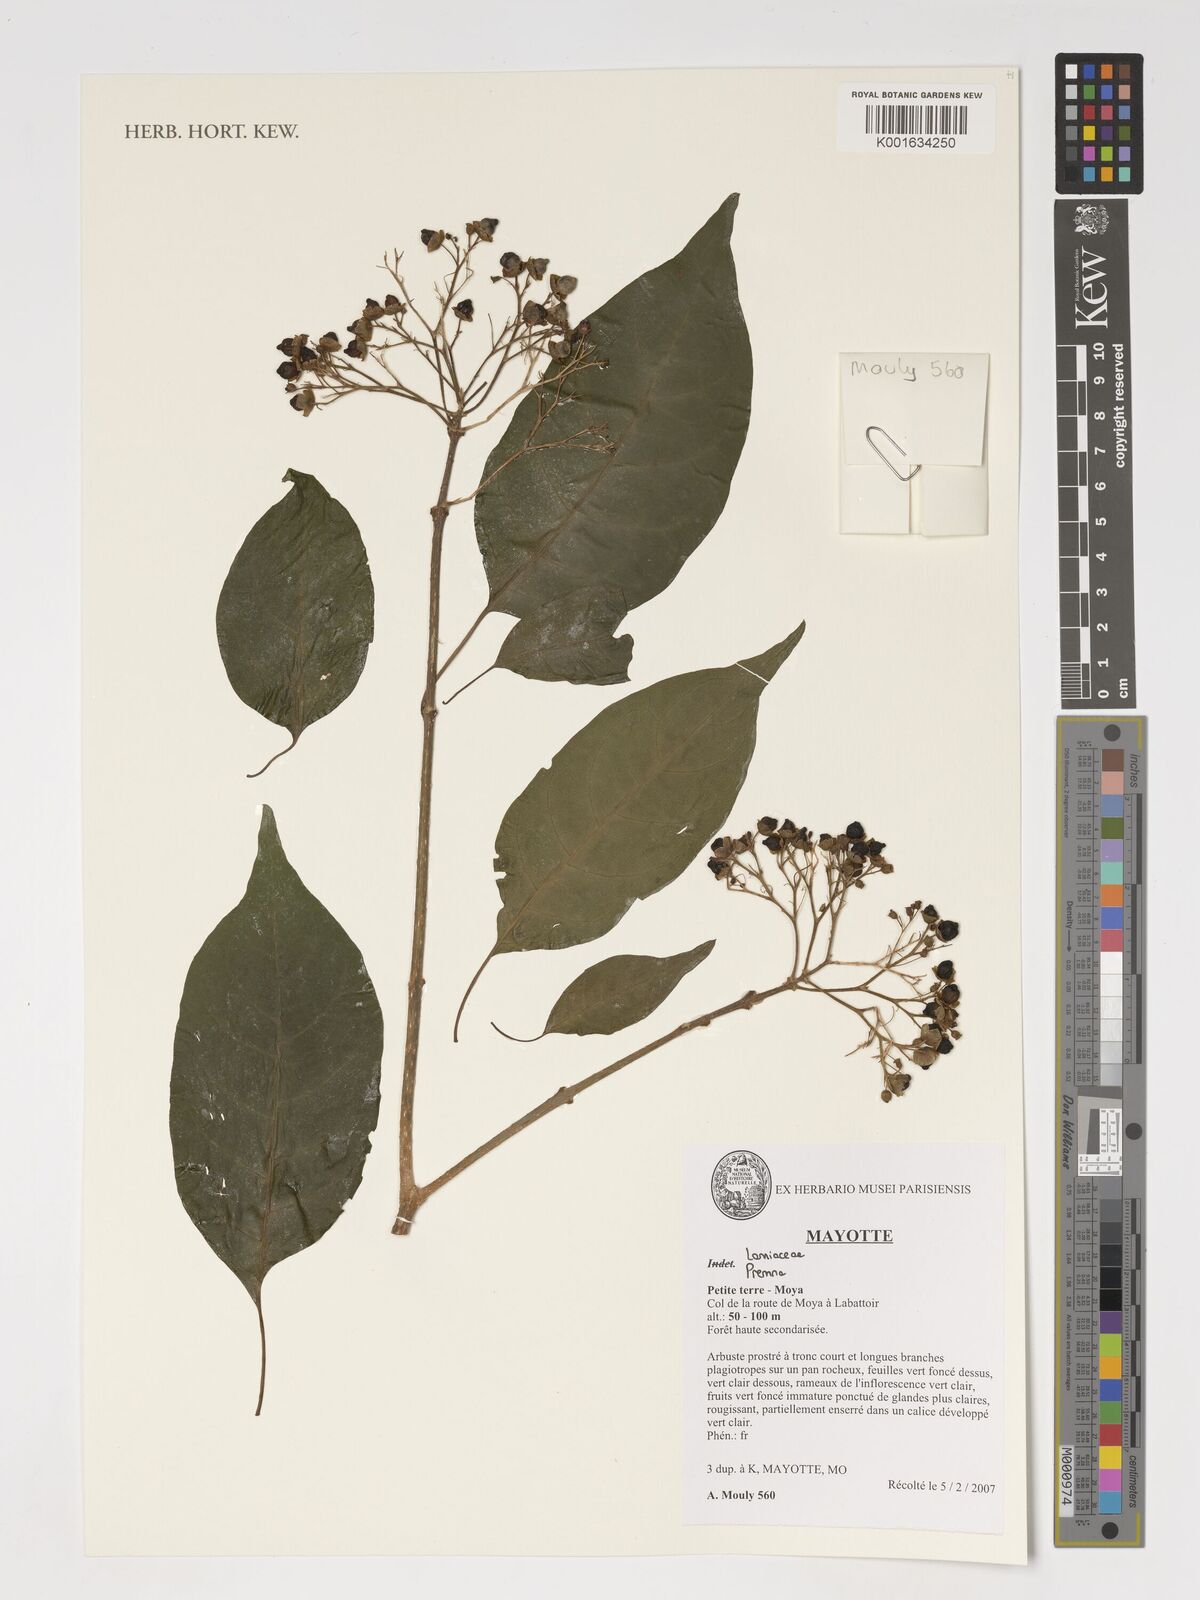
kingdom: Plantae
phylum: Tracheophyta
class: Magnoliopsida
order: Lamiales
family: Lamiaceae
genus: Premna
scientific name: Premna
